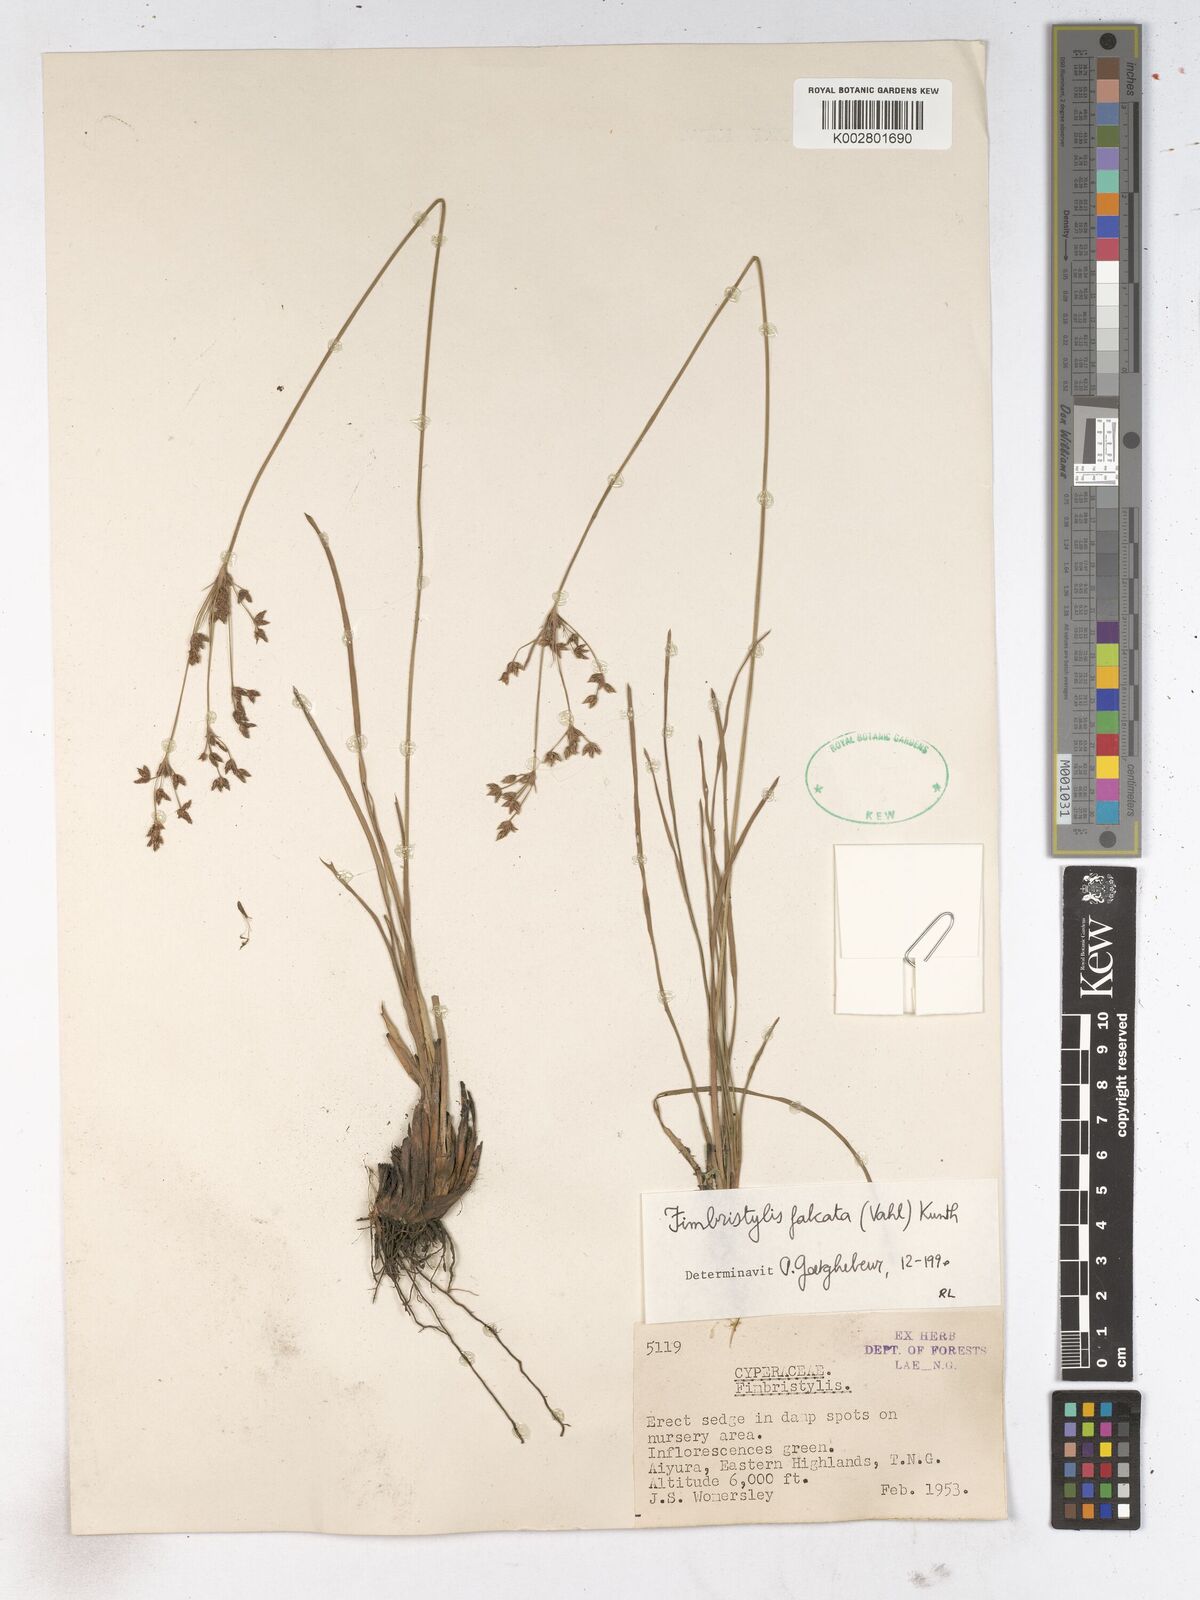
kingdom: Plantae
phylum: Tracheophyta
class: Liliopsida
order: Poales
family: Cyperaceae
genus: Fimbristylis
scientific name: Fimbristylis falcata
